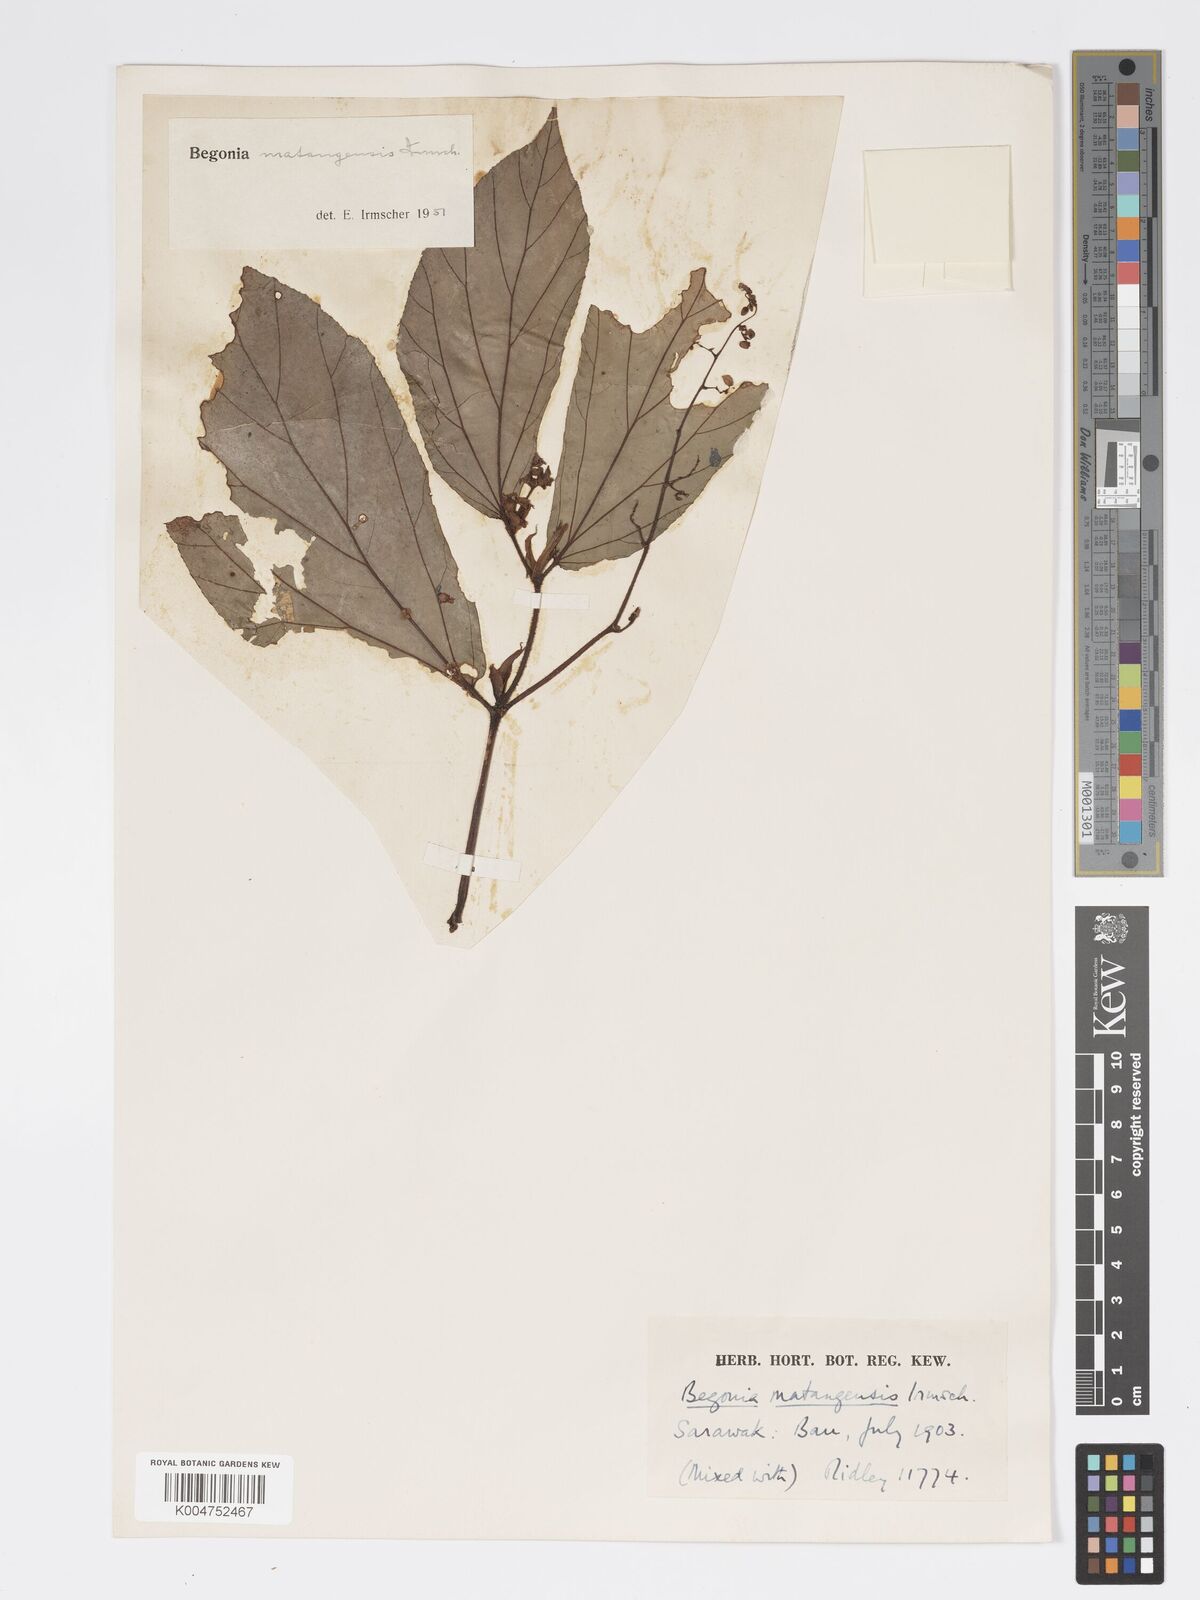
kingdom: Plantae
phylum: Tracheophyta
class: Magnoliopsida
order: Cucurbitales
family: Begoniaceae
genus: Begonia
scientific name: Begonia matangensis
